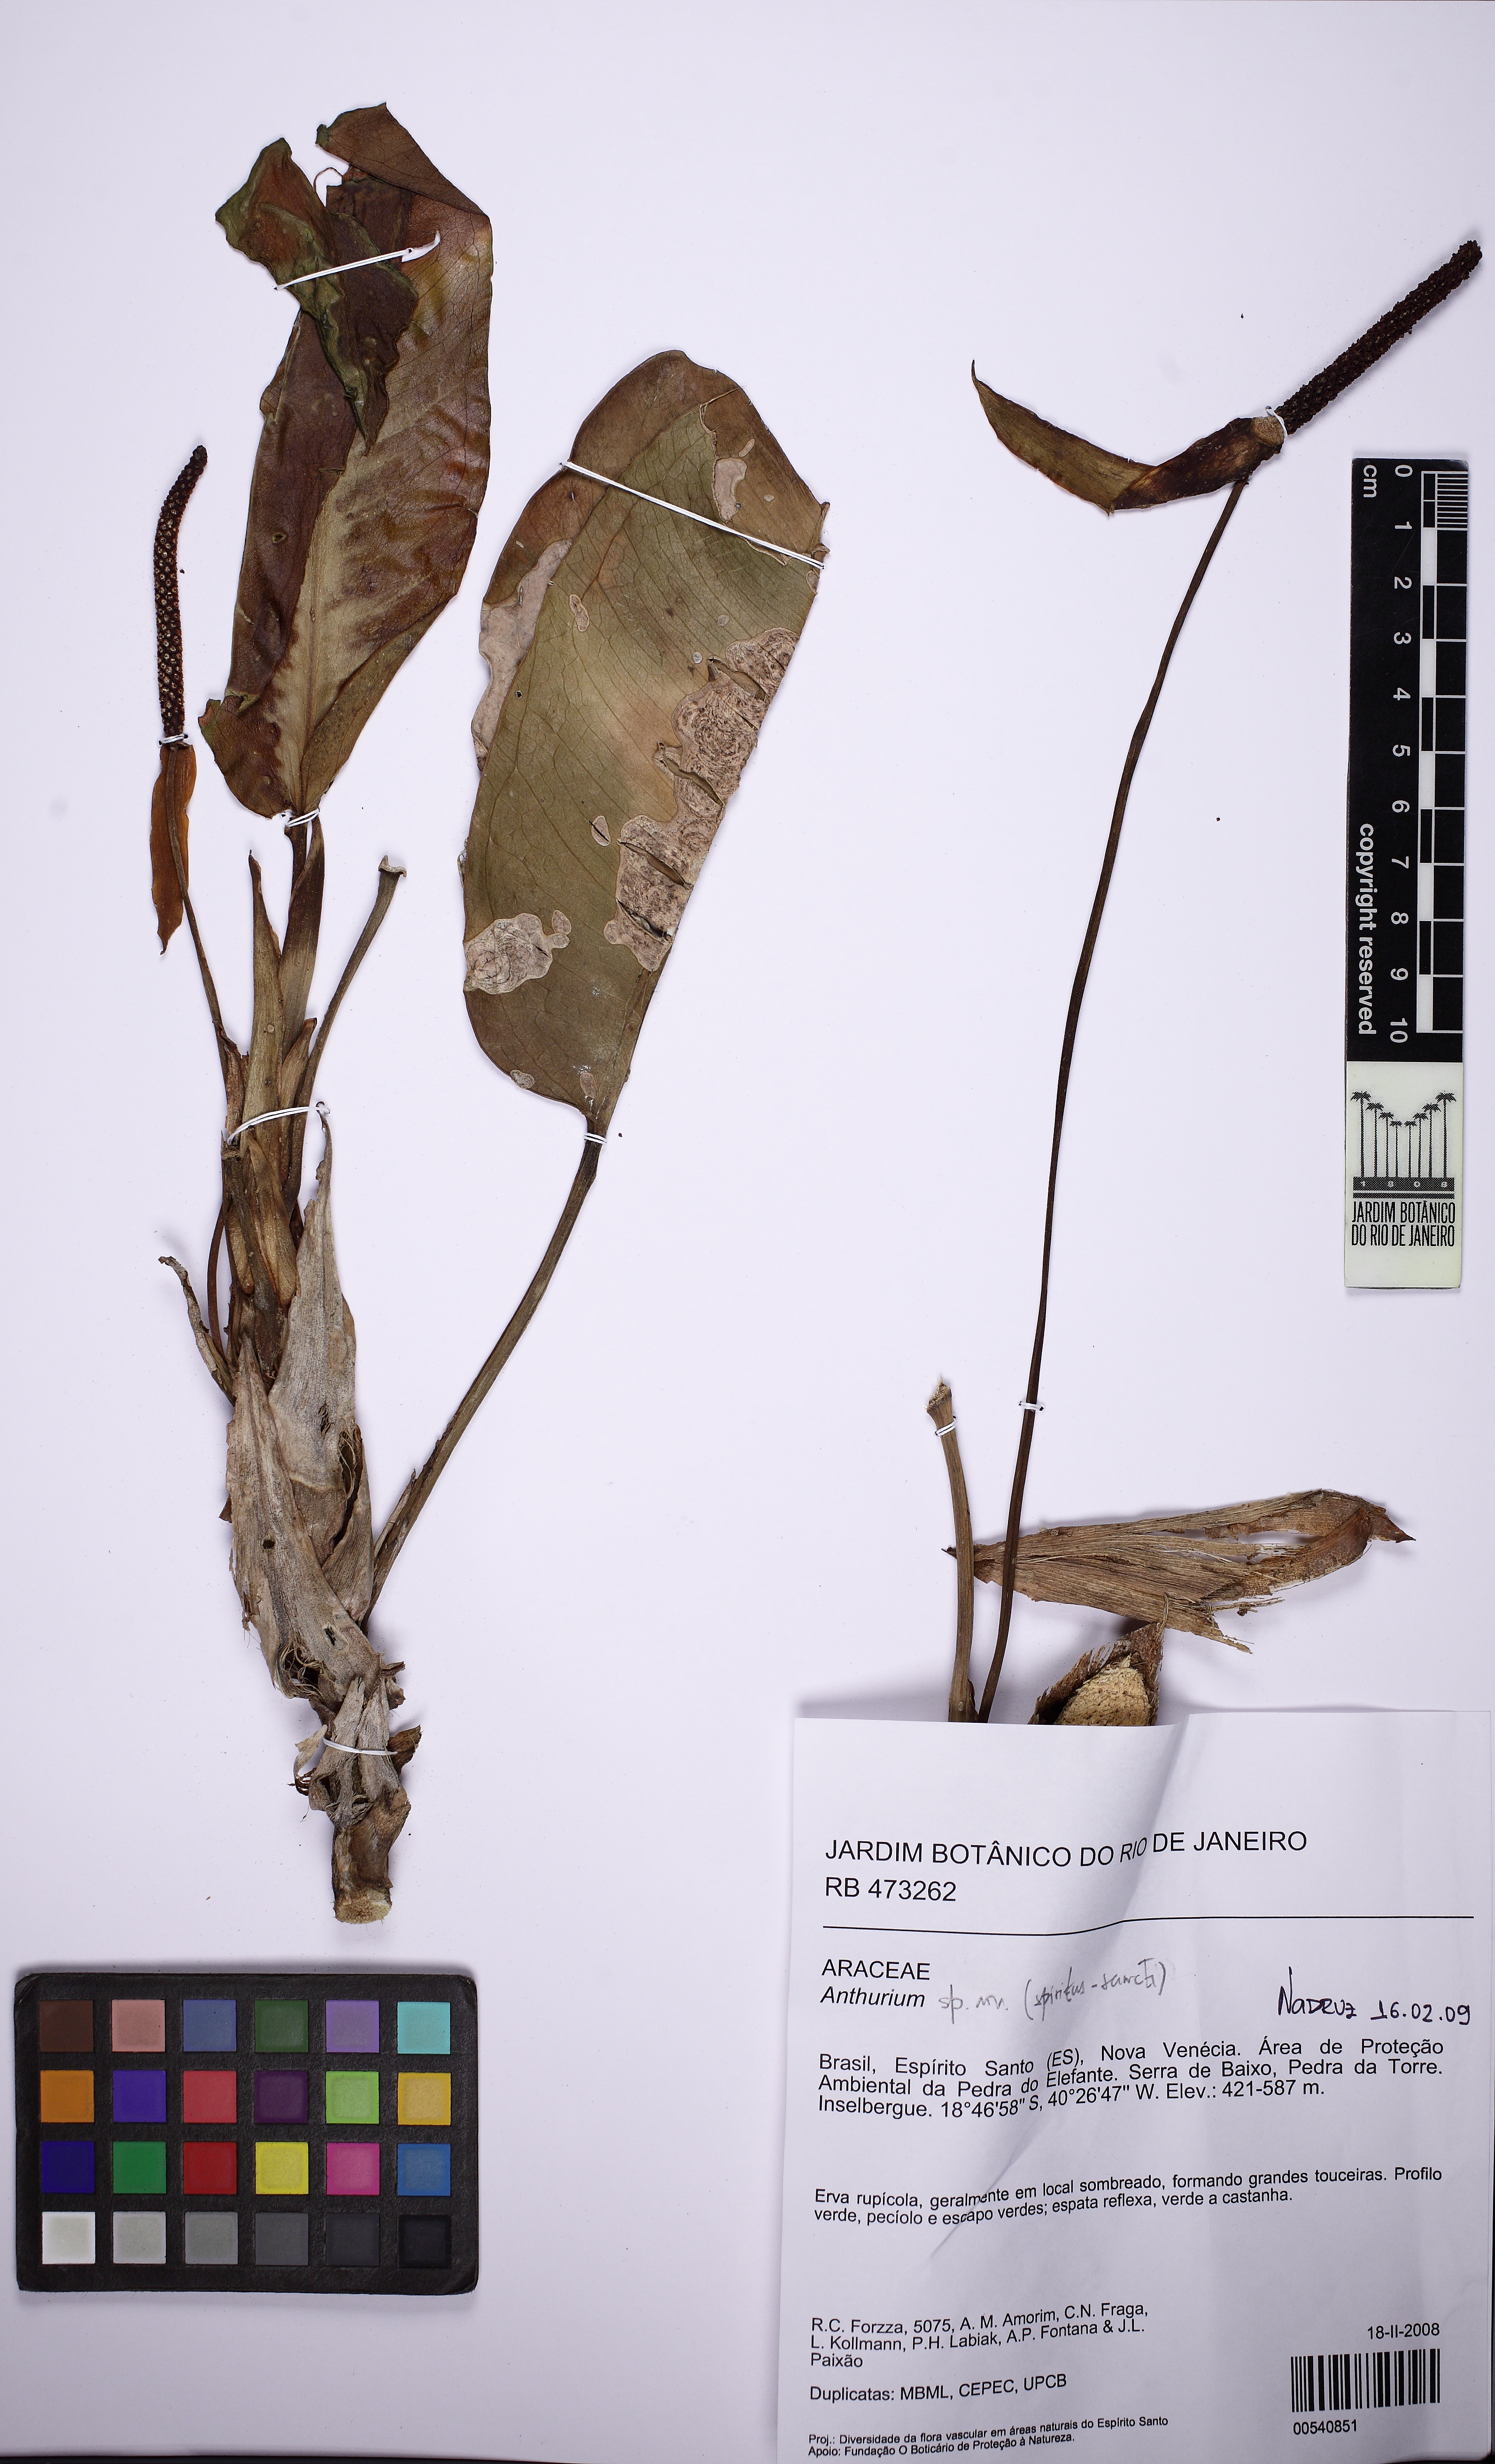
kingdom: Plantae
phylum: Tracheophyta
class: Liliopsida
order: Alismatales
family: Araceae
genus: Anthurium
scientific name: Anthurium parasiticum
